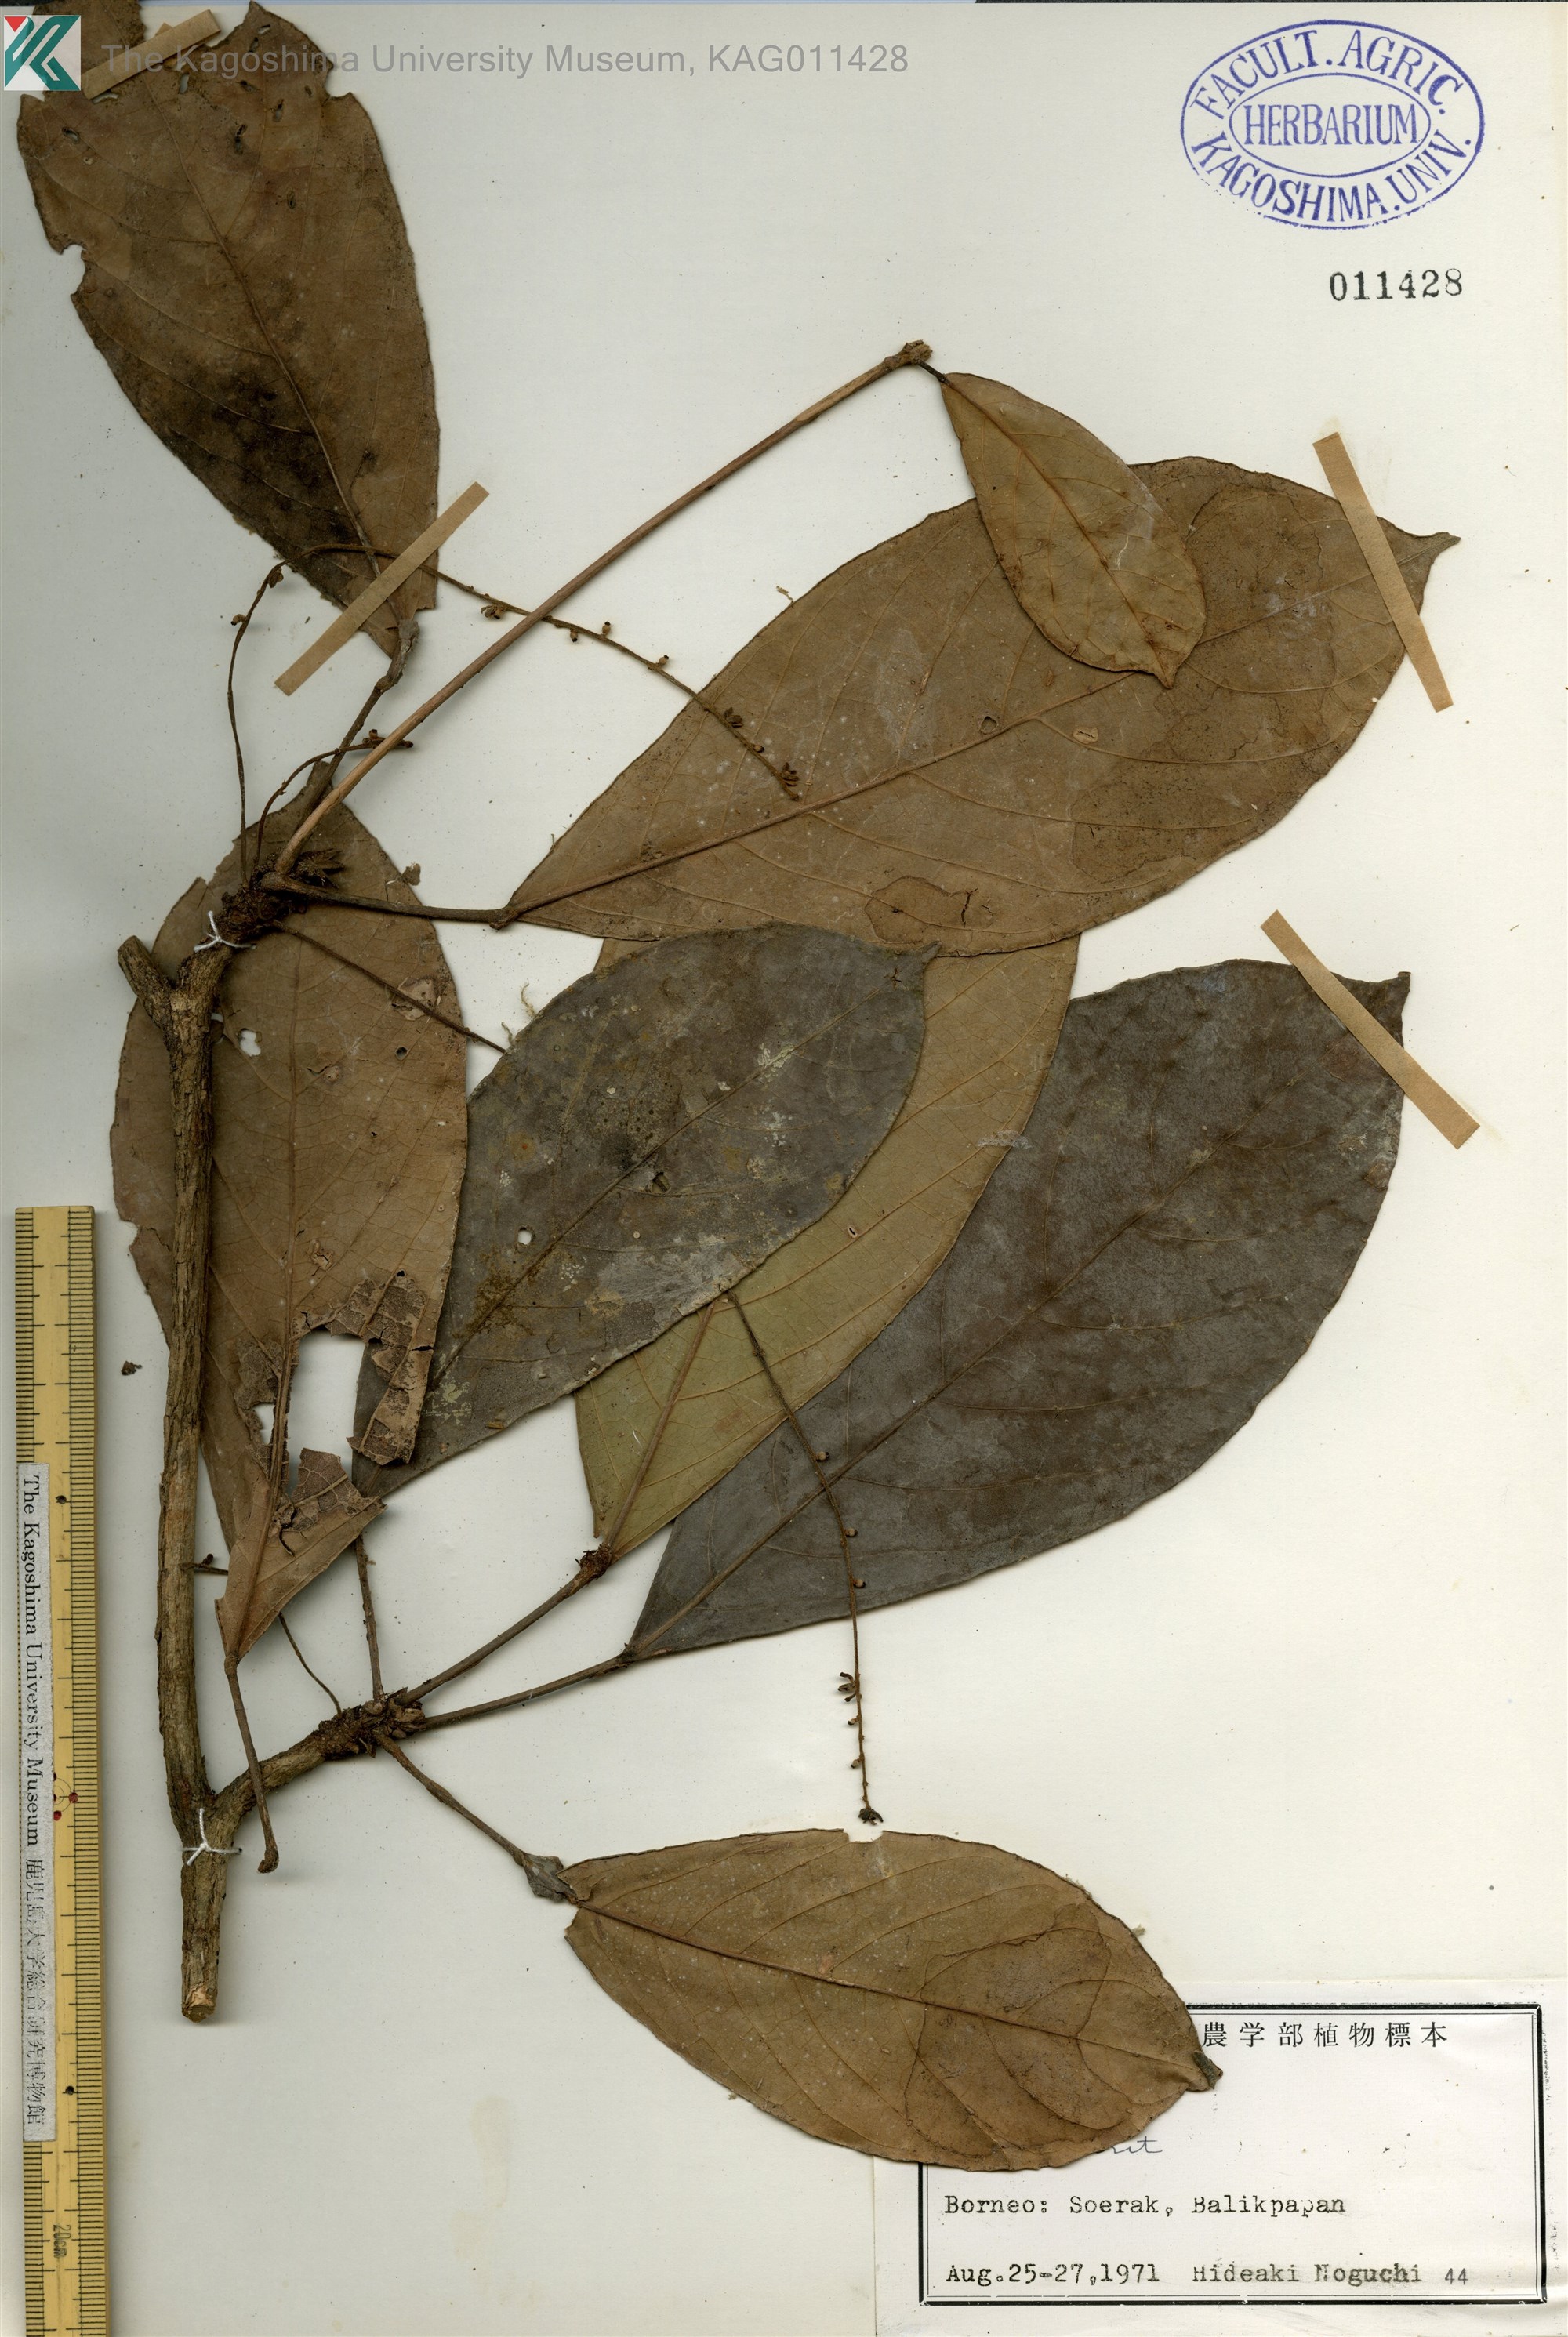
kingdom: Plantae
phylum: Tracheophyta
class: Magnoliopsida
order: Malpighiales
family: Phyllanthaceae
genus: Baccaurea
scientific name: Baccaurea
